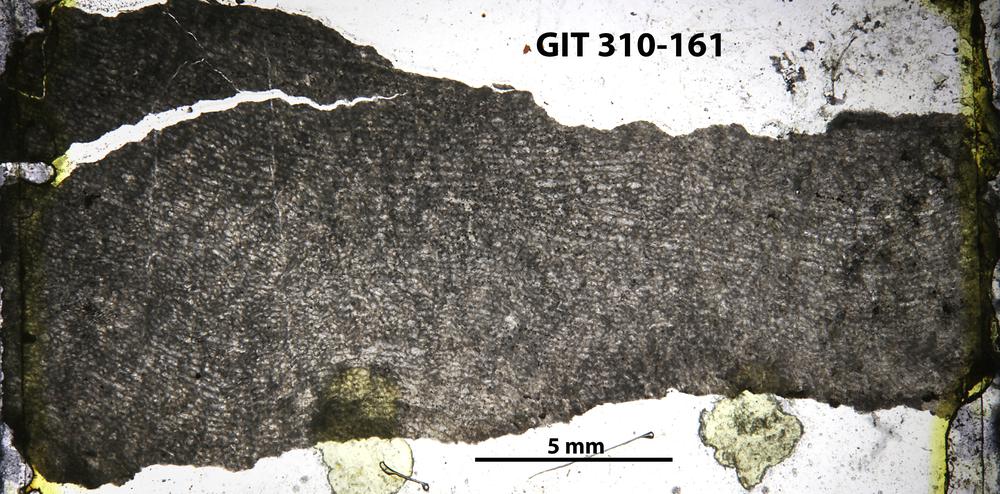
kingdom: Animalia
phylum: Porifera
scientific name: Porifera
